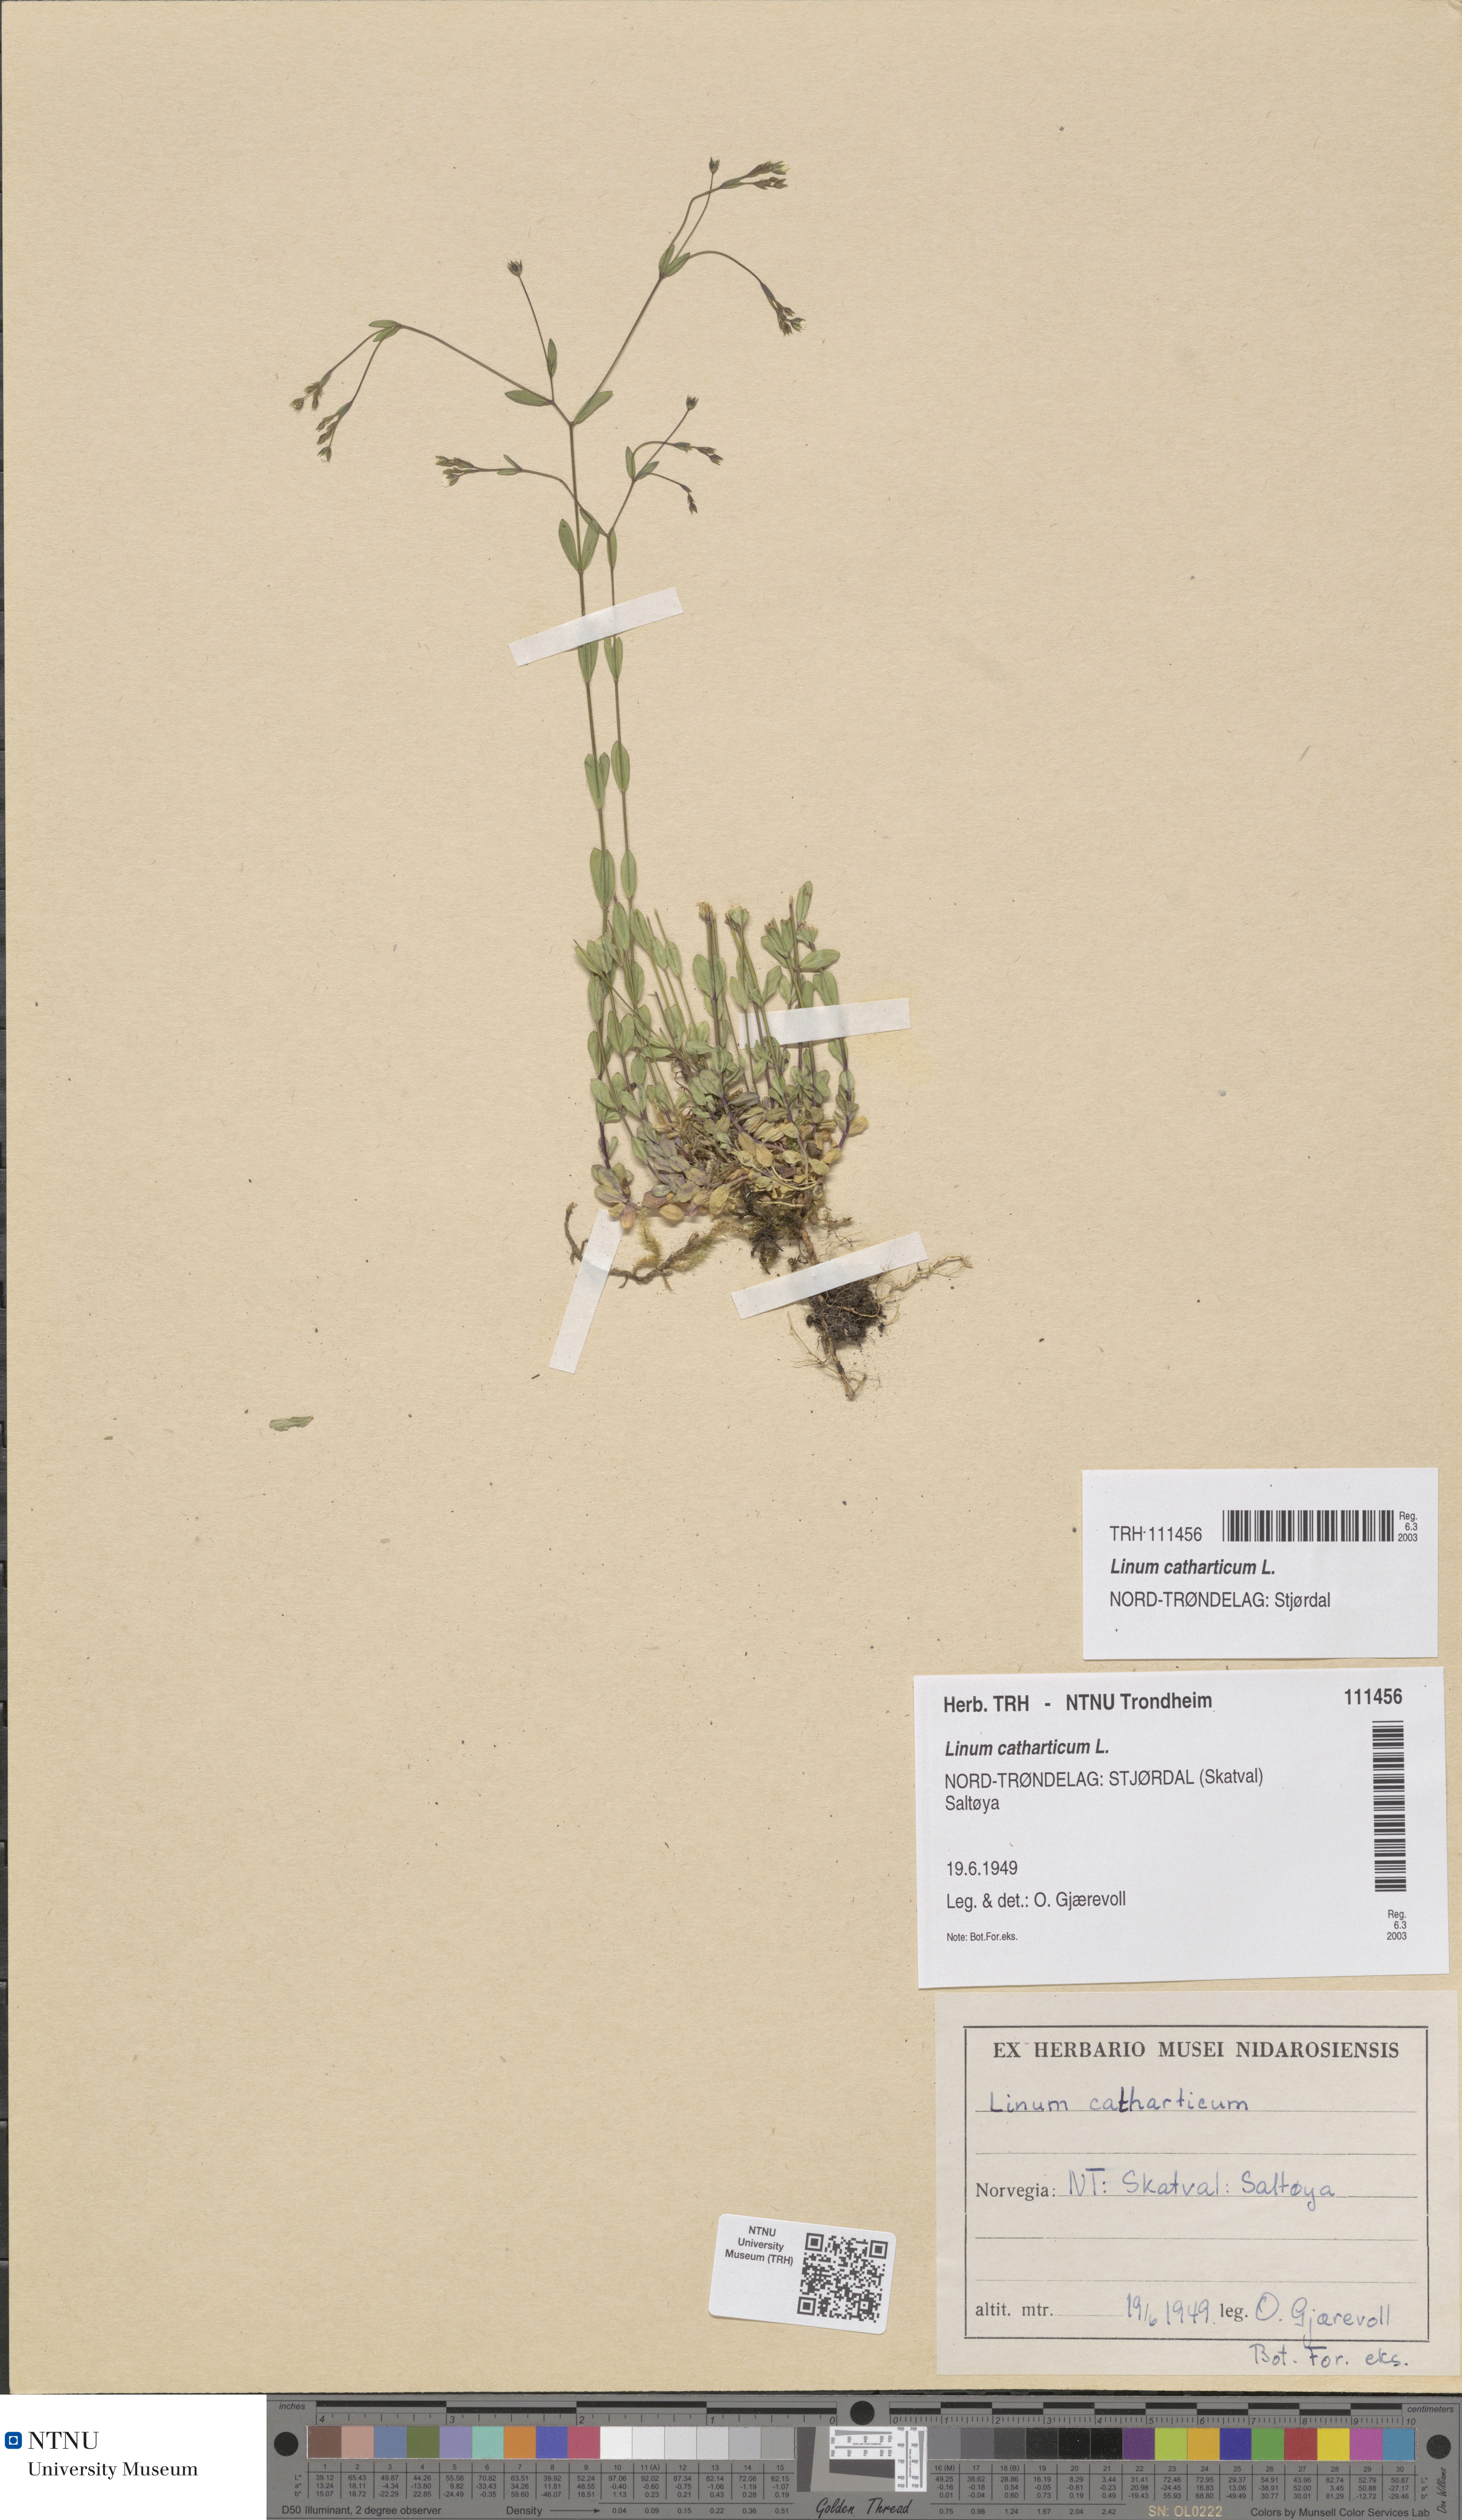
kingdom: Plantae
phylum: Tracheophyta
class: Magnoliopsida
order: Malpighiales
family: Linaceae
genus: Linum
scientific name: Linum catharticum
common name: Fairy flax
